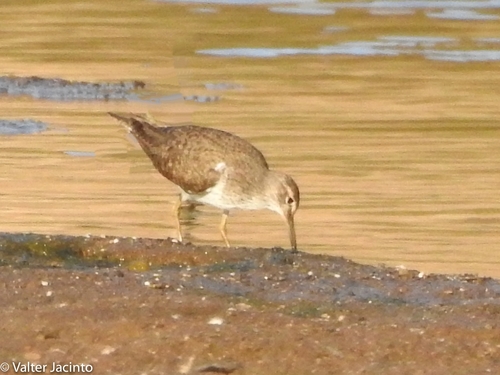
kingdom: Animalia
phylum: Chordata
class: Aves
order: Charadriiformes
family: Scolopacidae
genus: Actitis
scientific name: Actitis hypoleucos
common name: Common sandpiper
